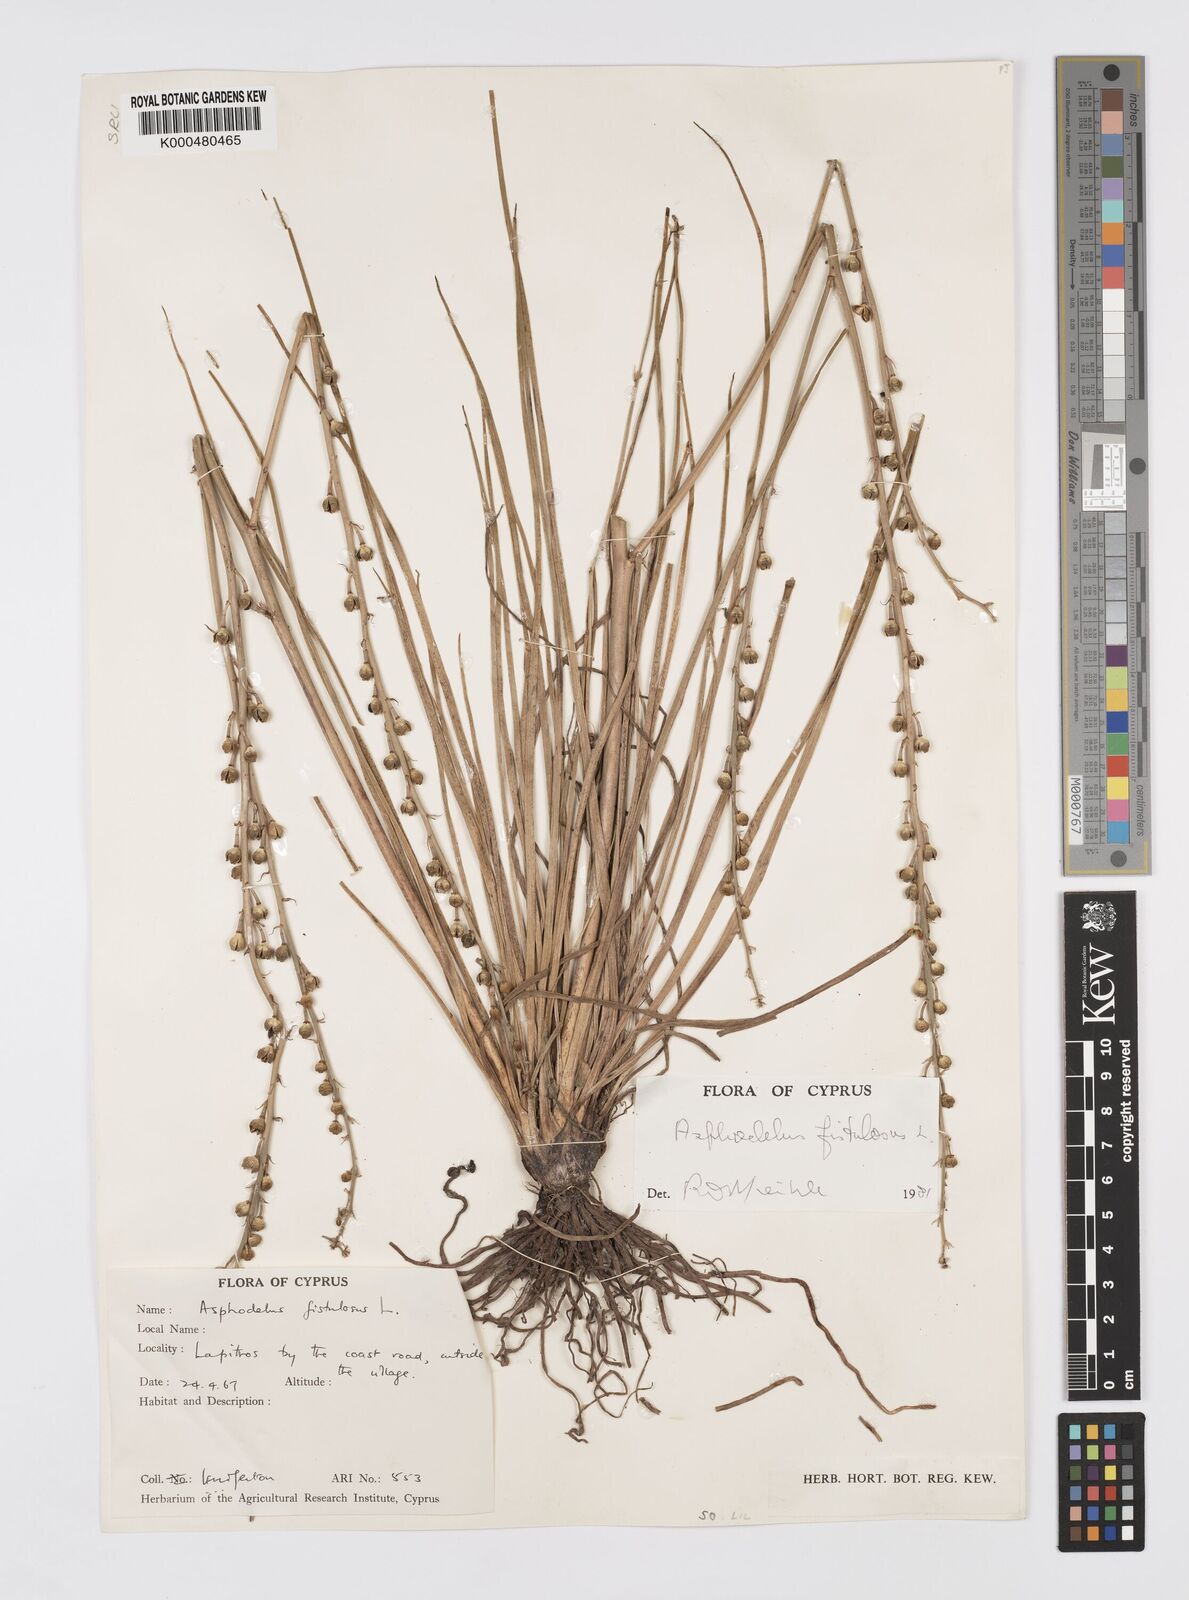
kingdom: Plantae
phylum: Tracheophyta
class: Liliopsida
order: Asparagales
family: Asphodelaceae
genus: Asphodelus
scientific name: Asphodelus fistulosus
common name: Onionweed
